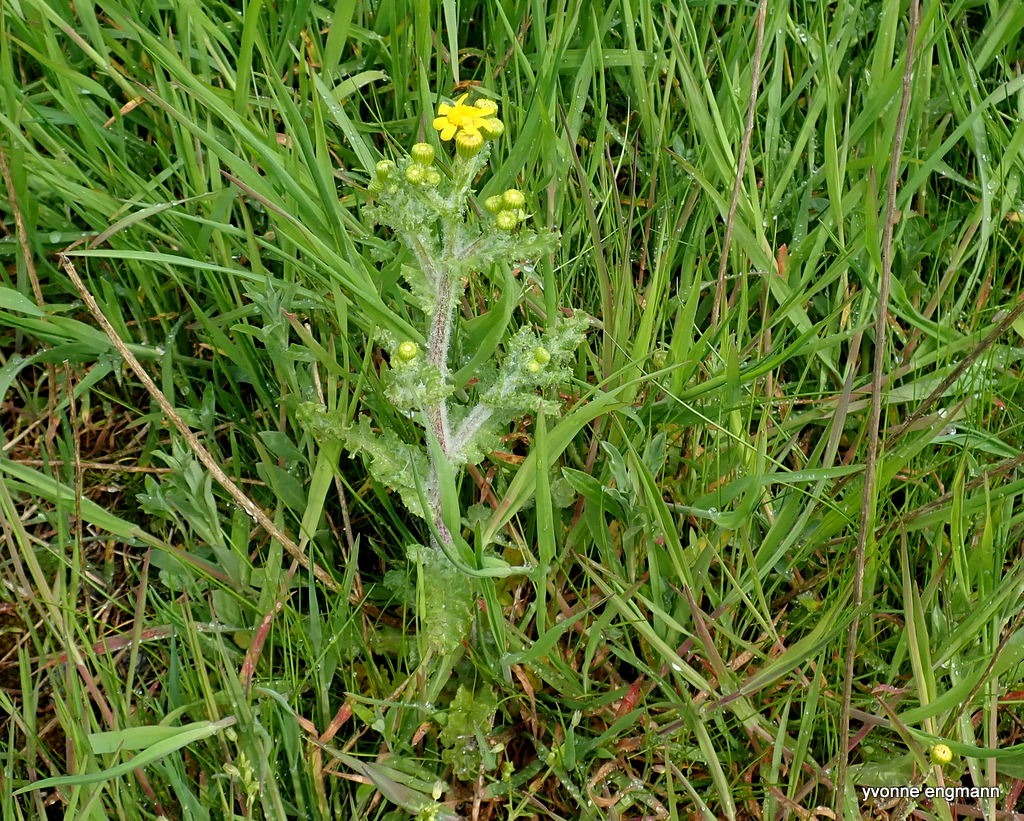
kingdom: Plantae
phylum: Tracheophyta
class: Magnoliopsida
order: Asterales
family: Asteraceae
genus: Senecio
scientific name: Senecio leucanthemifolius
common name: Vår-brandbæger
